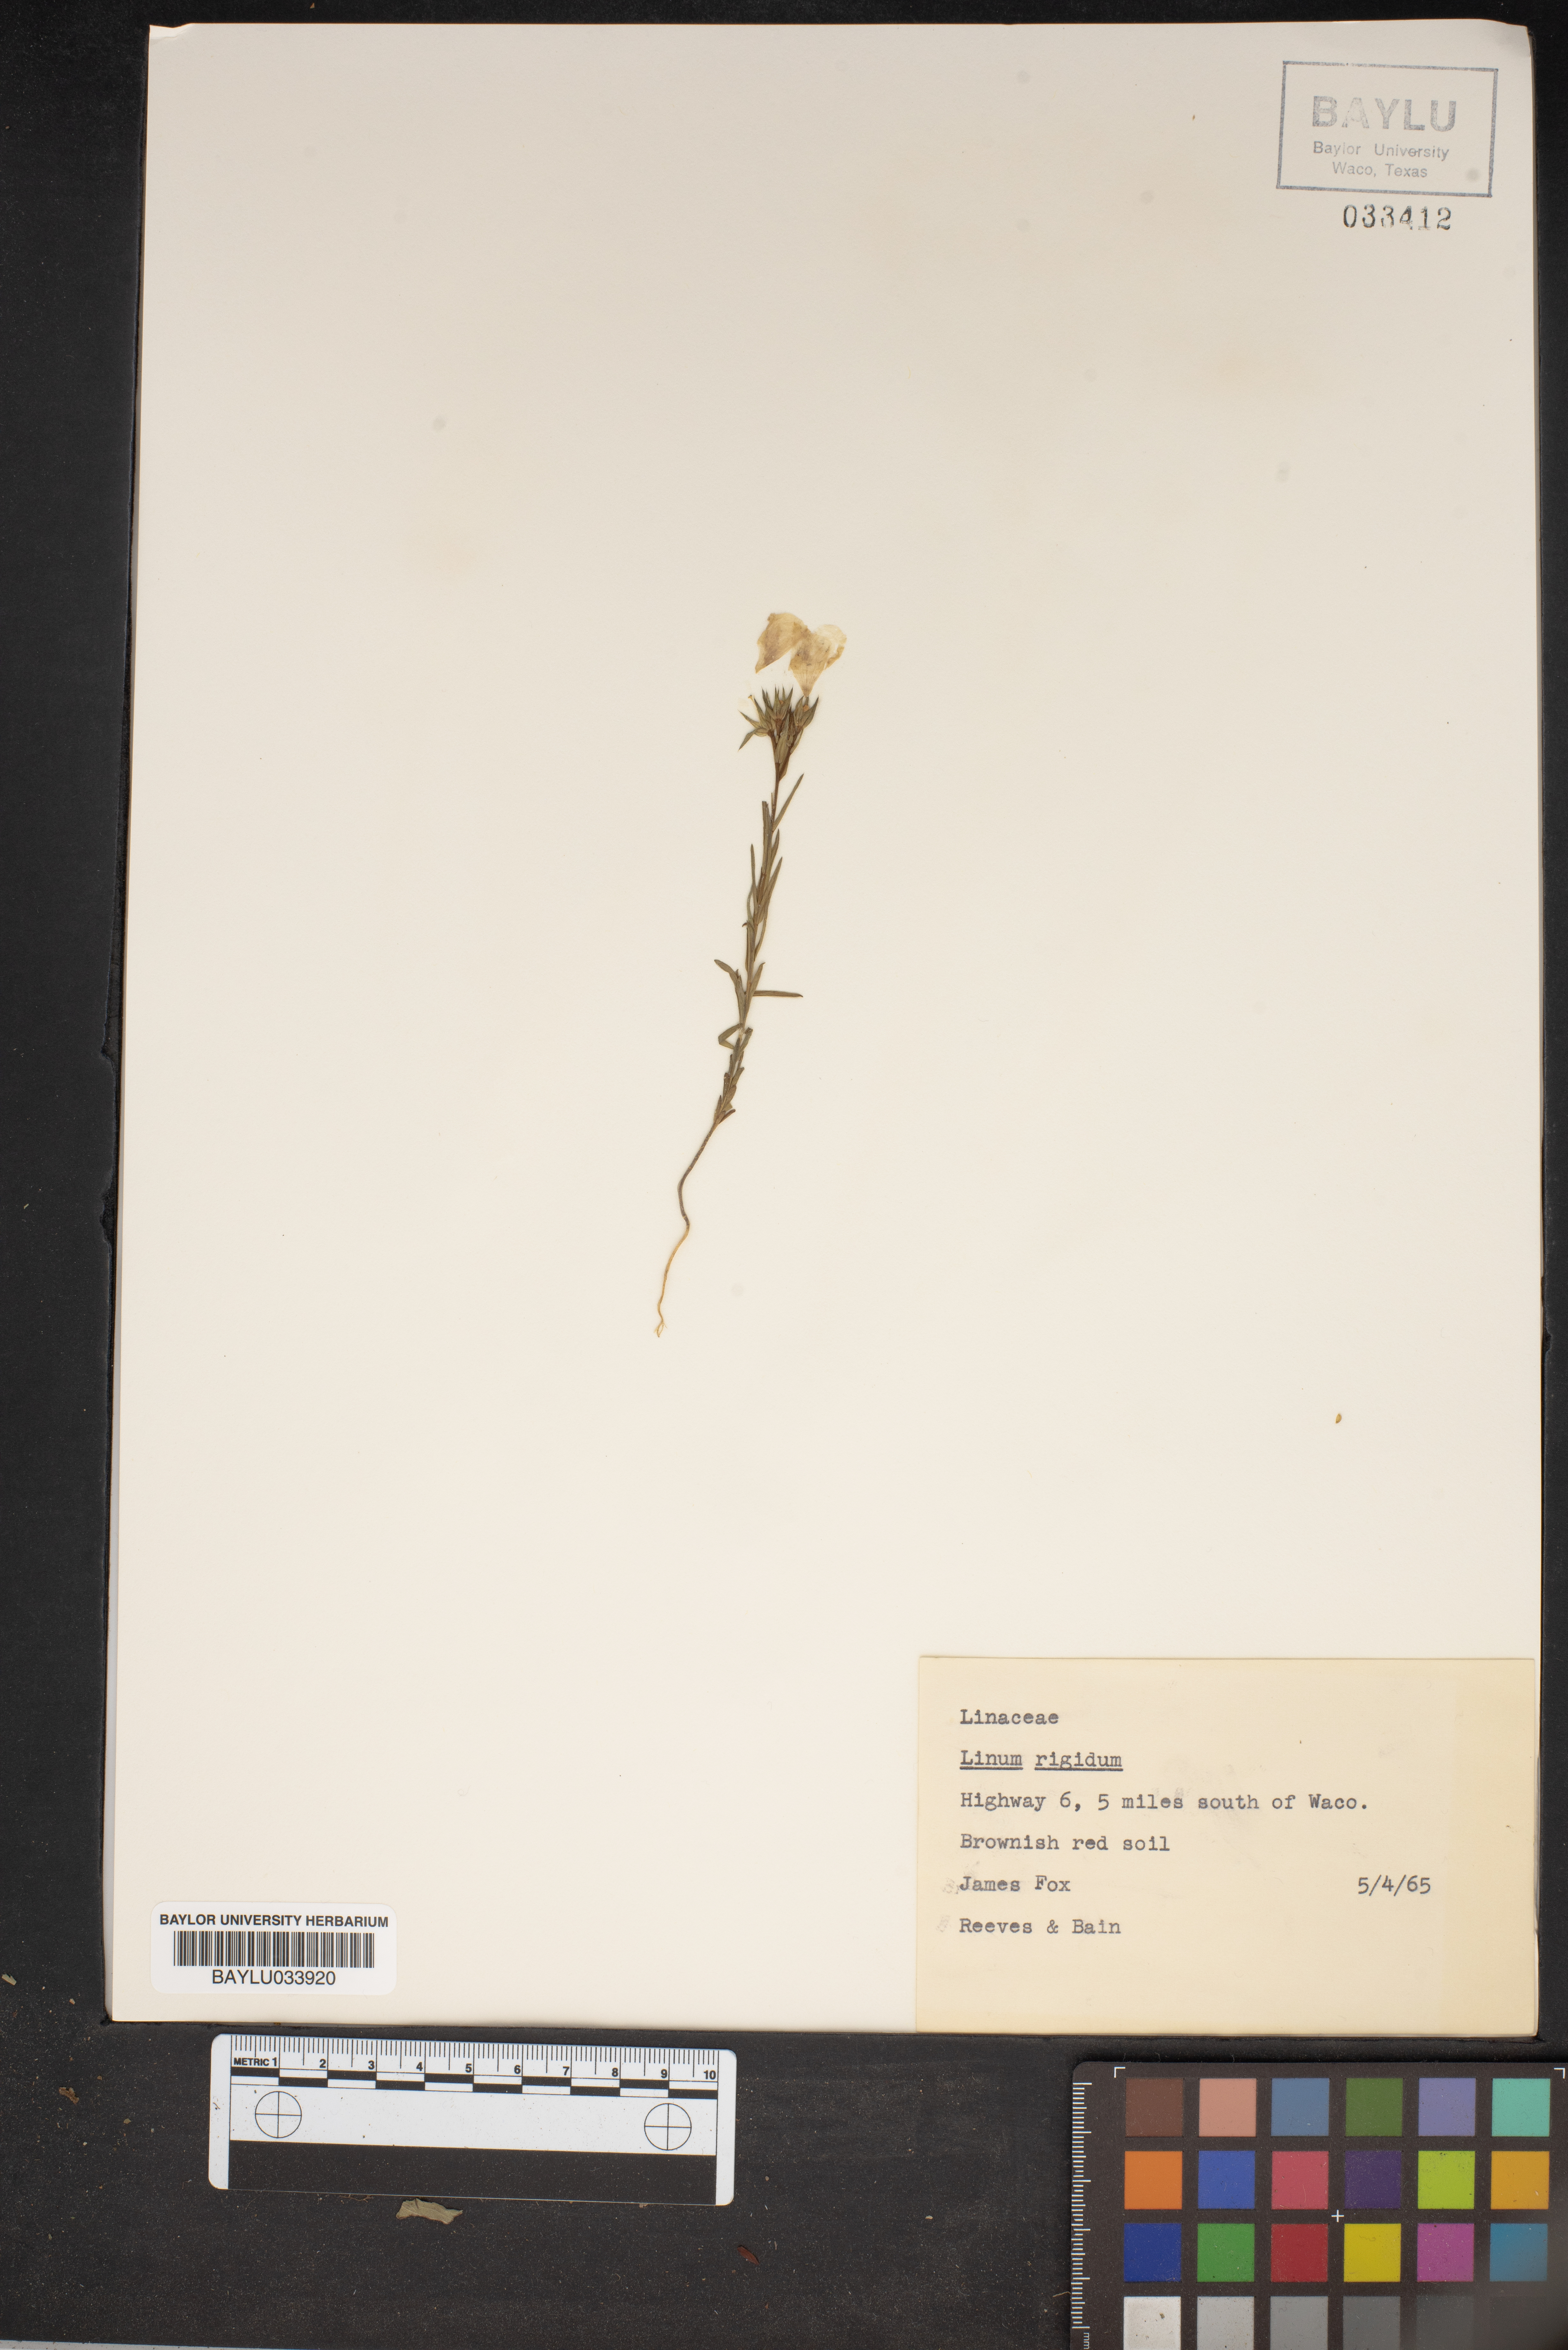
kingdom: Plantae
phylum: Tracheophyta
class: Magnoliopsida
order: Malpighiales
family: Linaceae
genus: Linum
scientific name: Linum rigidum
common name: Stiff-stem flax
